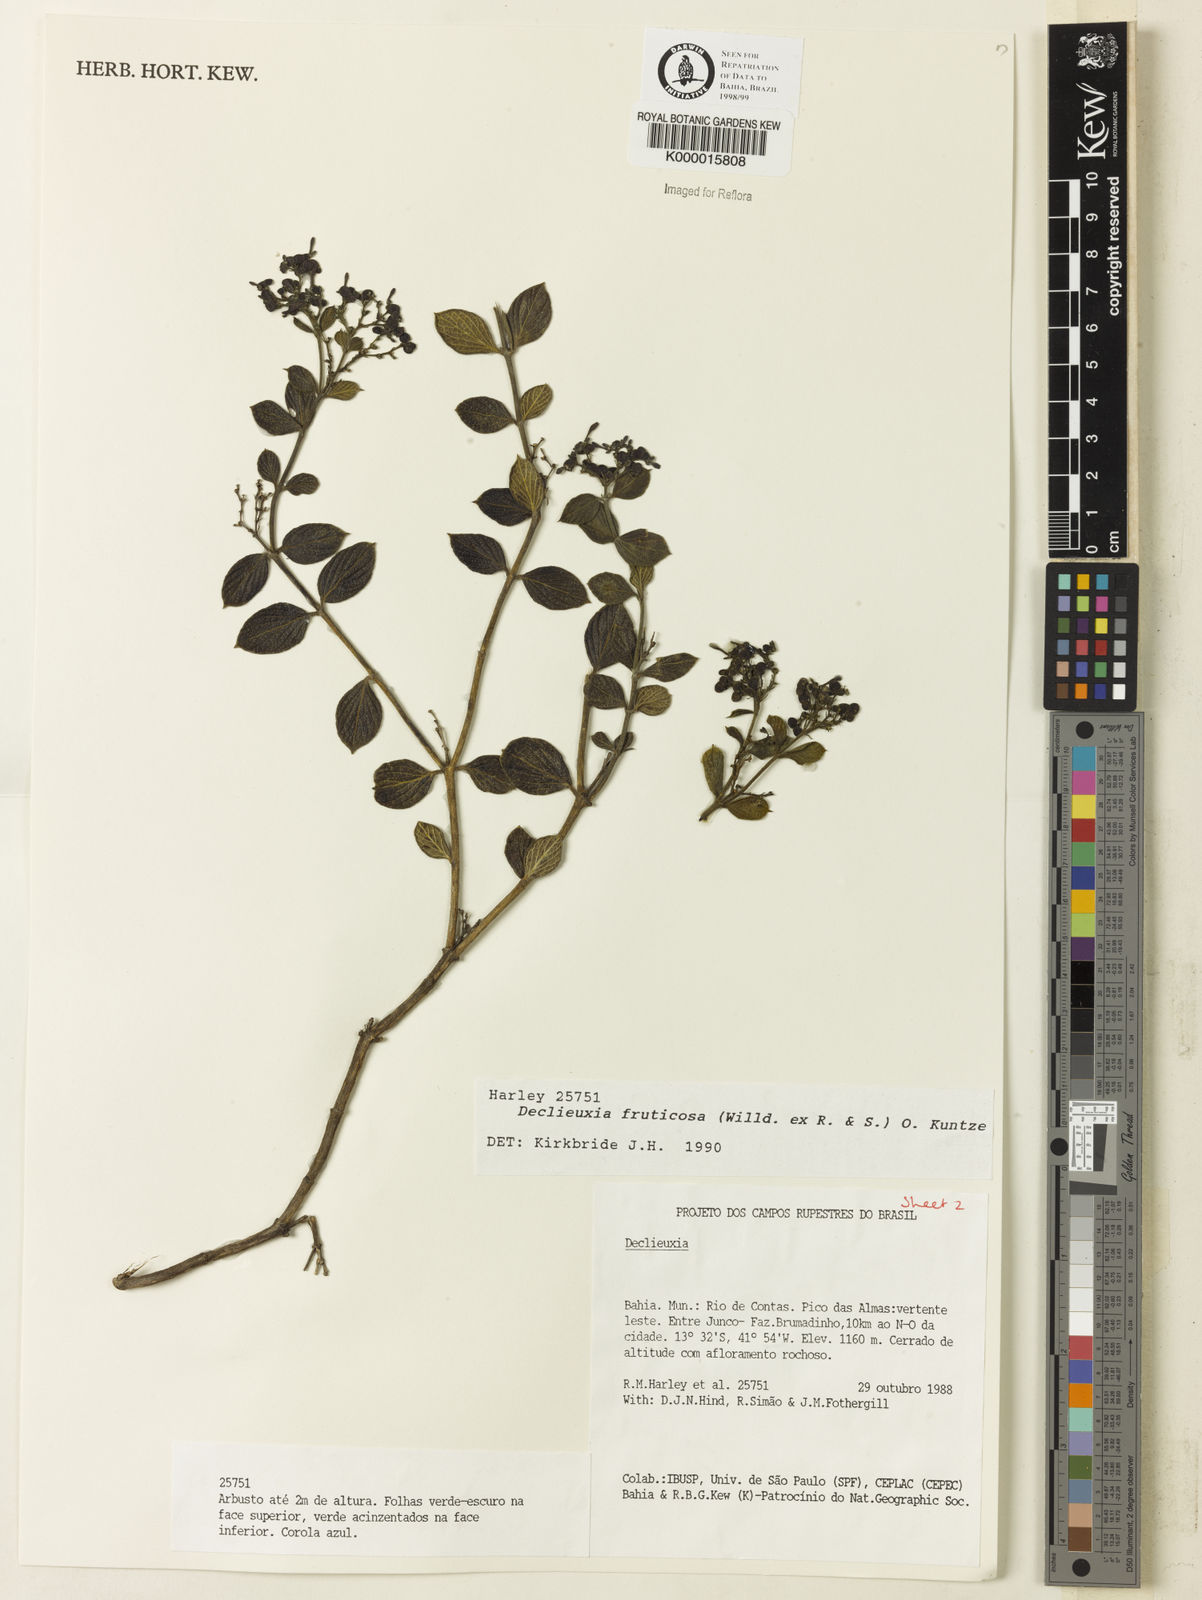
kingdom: Plantae
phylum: Tracheophyta
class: Magnoliopsida
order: Gentianales
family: Rubiaceae
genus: Declieuxia
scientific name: Declieuxia fruticosa
